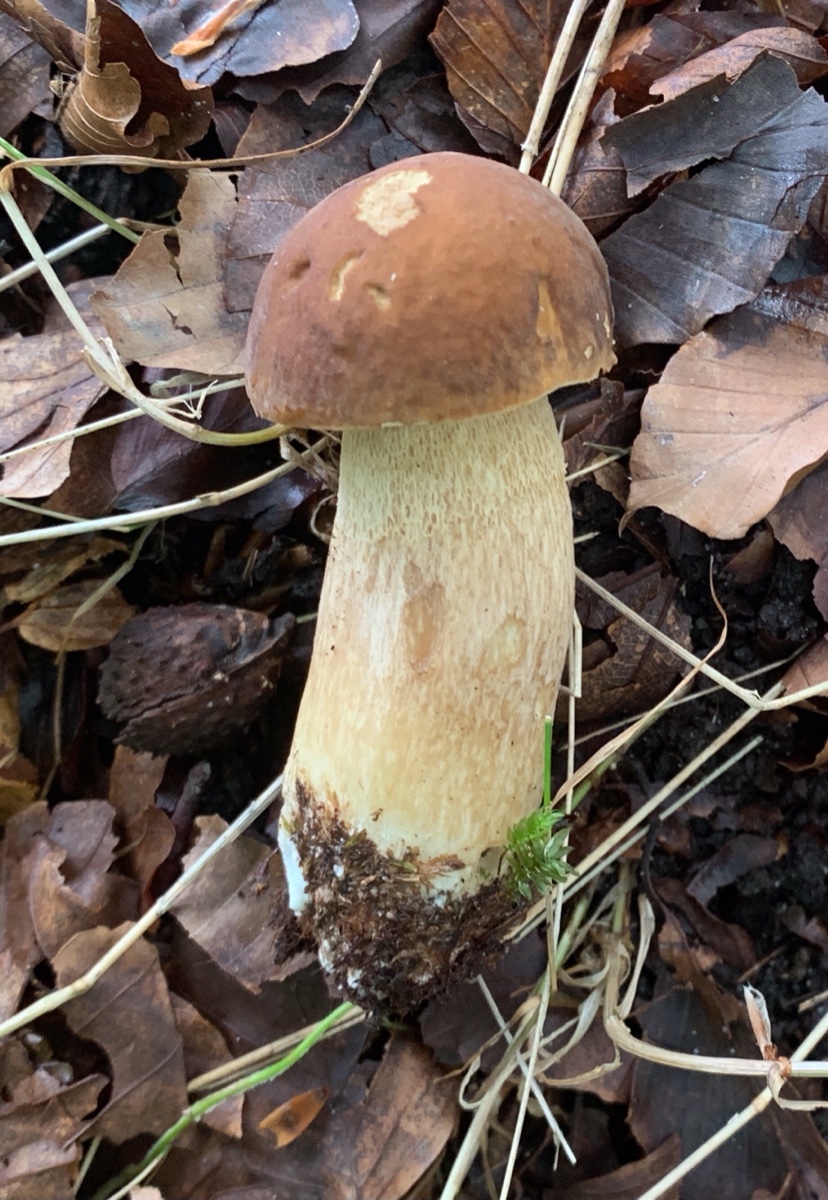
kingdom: Fungi
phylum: Basidiomycota
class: Agaricomycetes
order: Boletales
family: Boletaceae
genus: Boletus
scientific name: Boletus edulis
